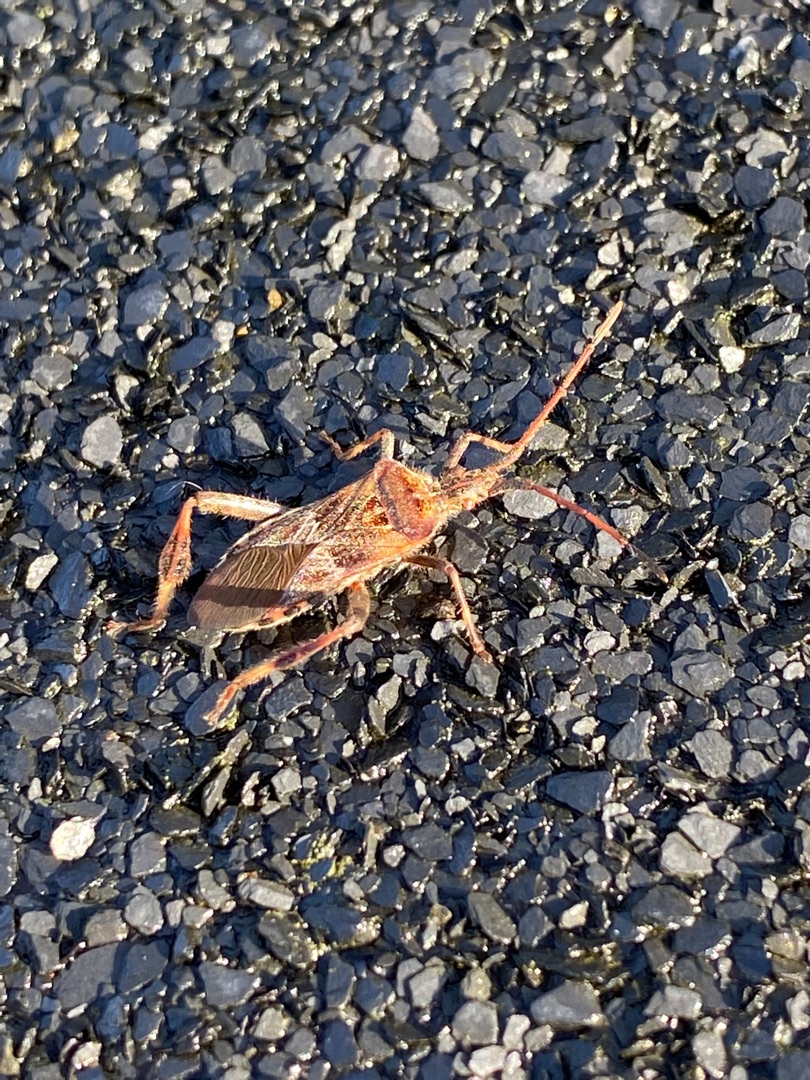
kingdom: Animalia
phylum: Arthropoda
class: Insecta
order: Hemiptera
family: Coreidae
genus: Leptoglossus
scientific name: Leptoglossus occidentalis
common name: Amerikansk fyrretæge
